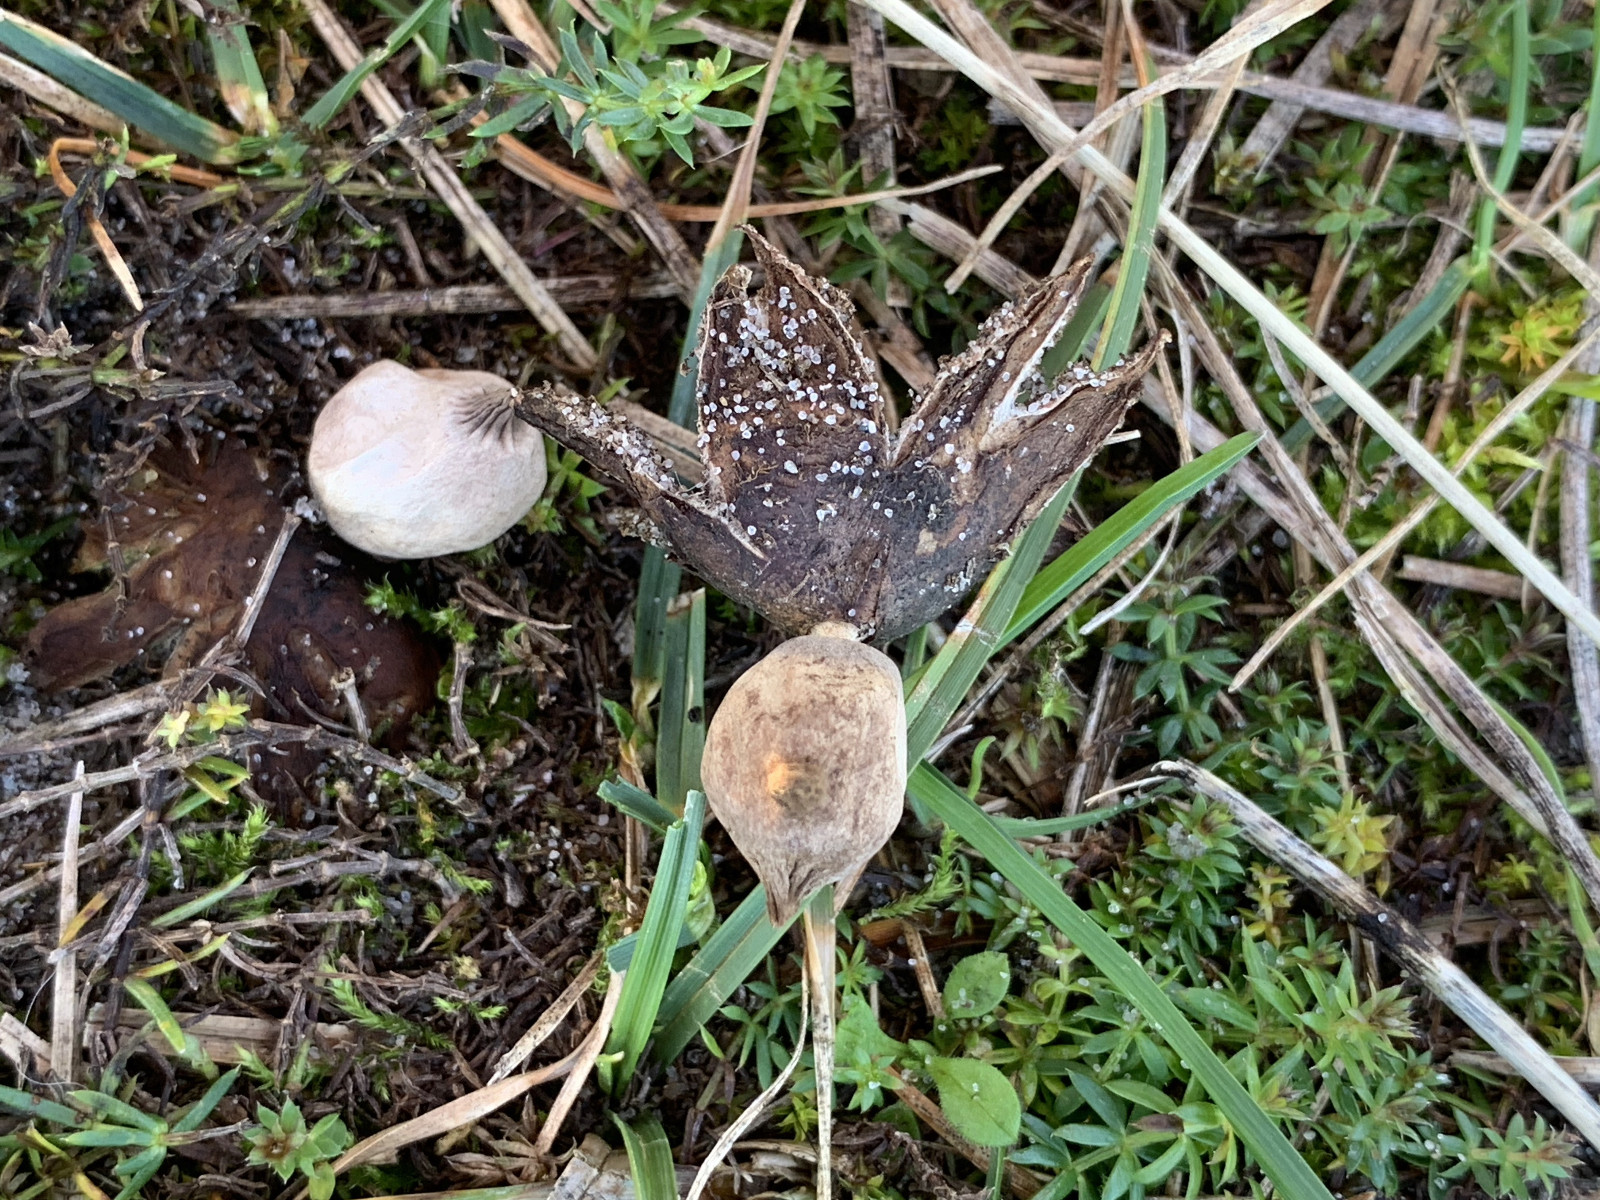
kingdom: Fungi
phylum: Basidiomycota
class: Agaricomycetes
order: Geastrales
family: Geastraceae
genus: Geastrum
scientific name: Geastrum striatum
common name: dværg-stjernebold
